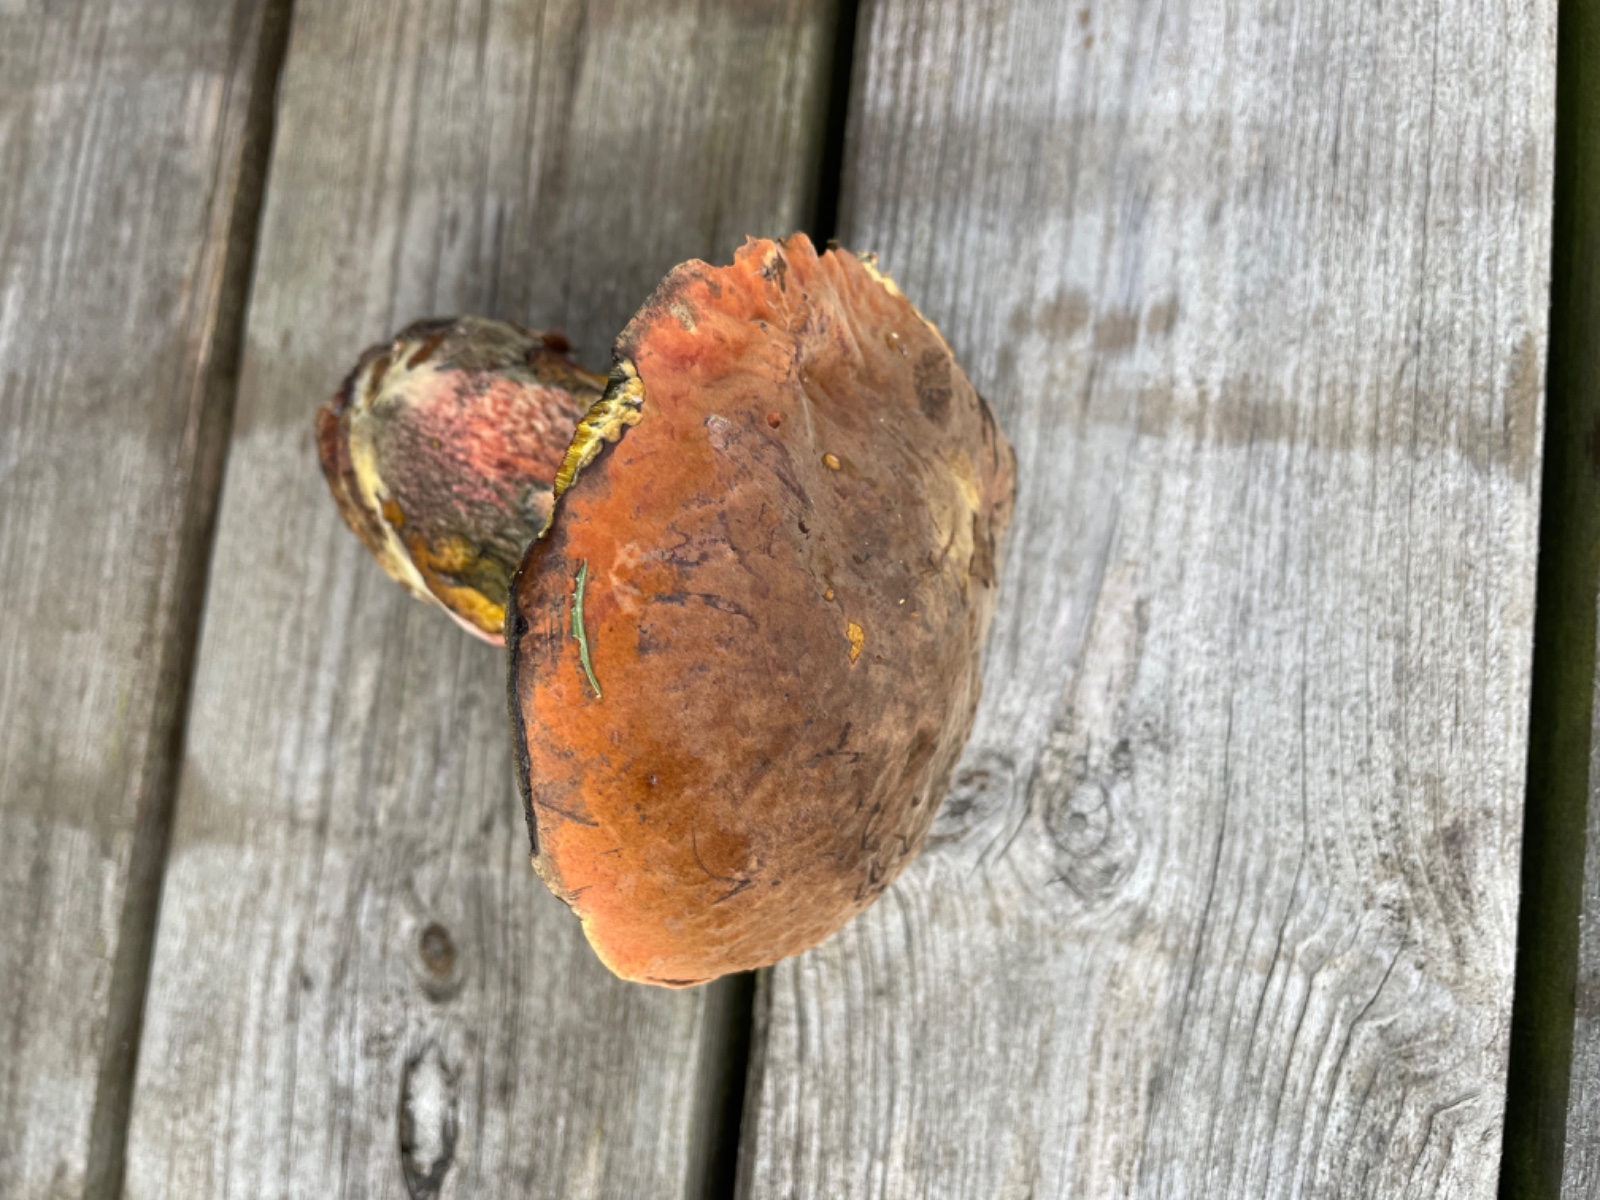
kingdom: Fungi
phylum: Basidiomycota
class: Agaricomycetes
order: Boletales
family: Boletaceae
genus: Neoboletus
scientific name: Neoboletus erythropus
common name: punktstokket indigorørhat
